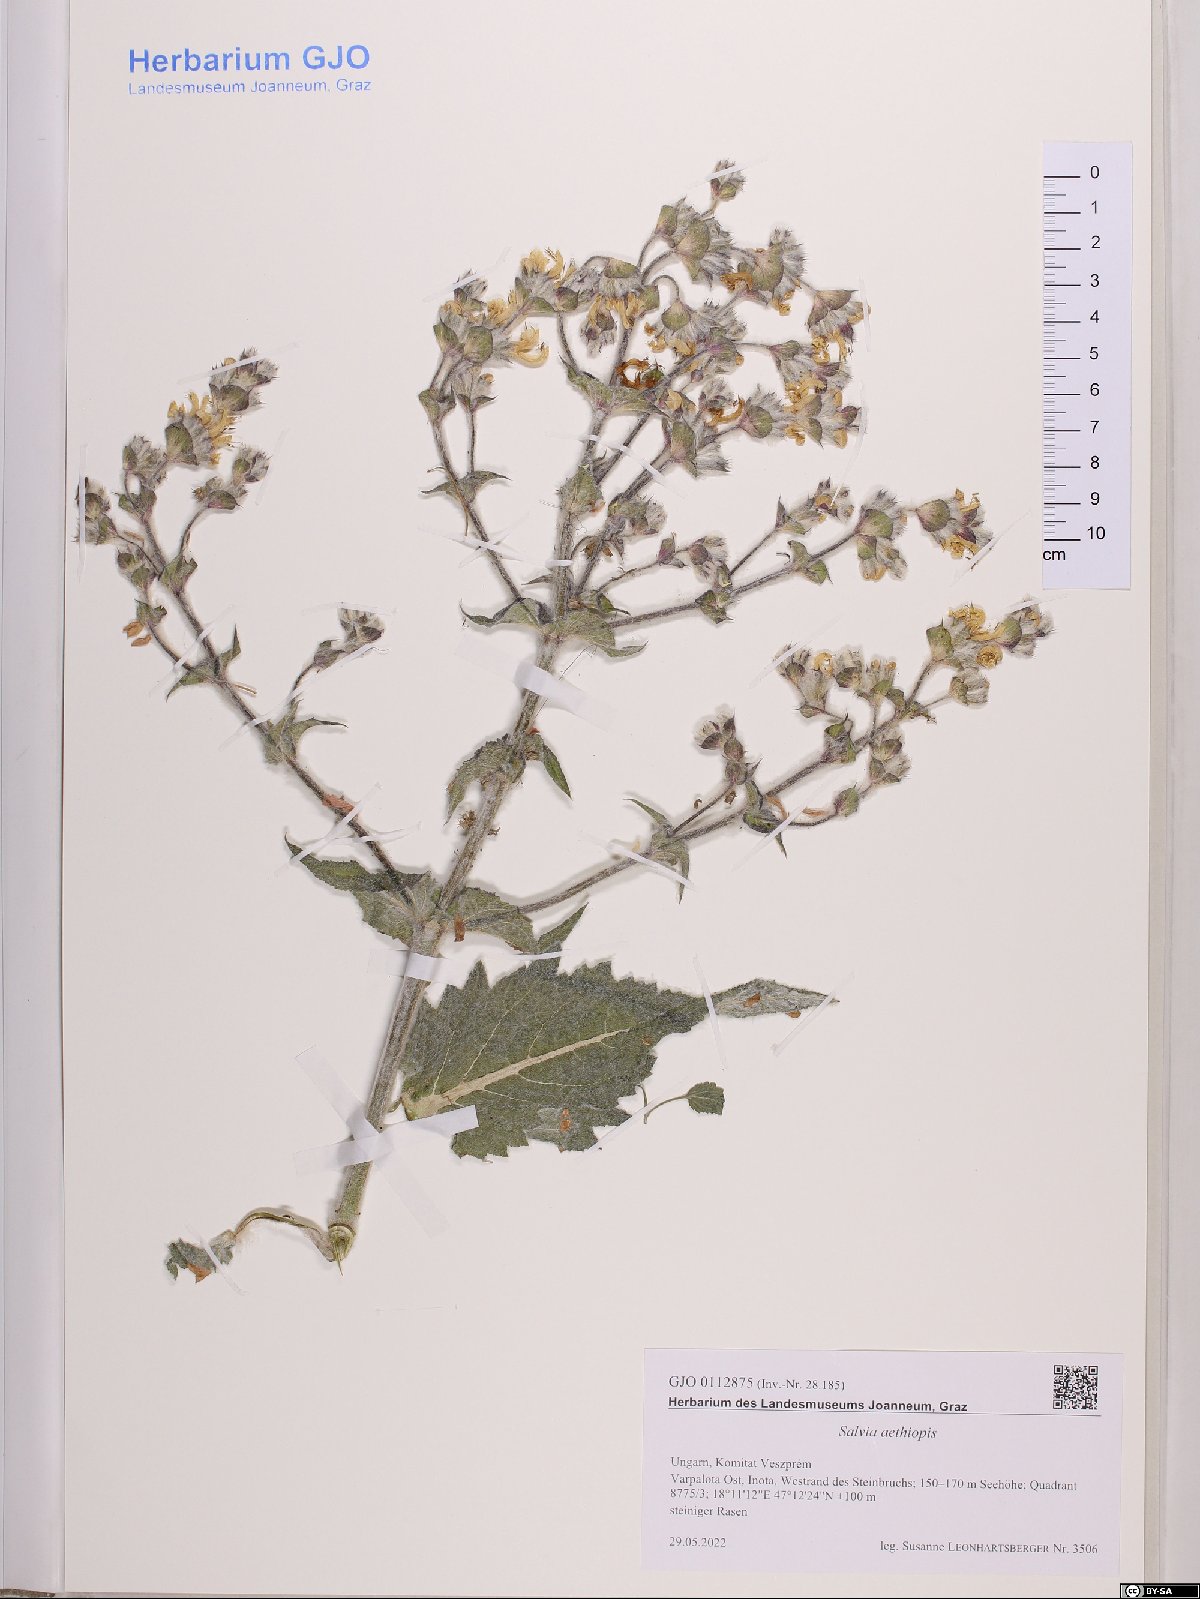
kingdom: Plantae
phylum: Tracheophyta
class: Magnoliopsida
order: Lamiales
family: Lamiaceae
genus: Salvia
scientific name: Salvia aethiopis
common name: Mediterranean sage
